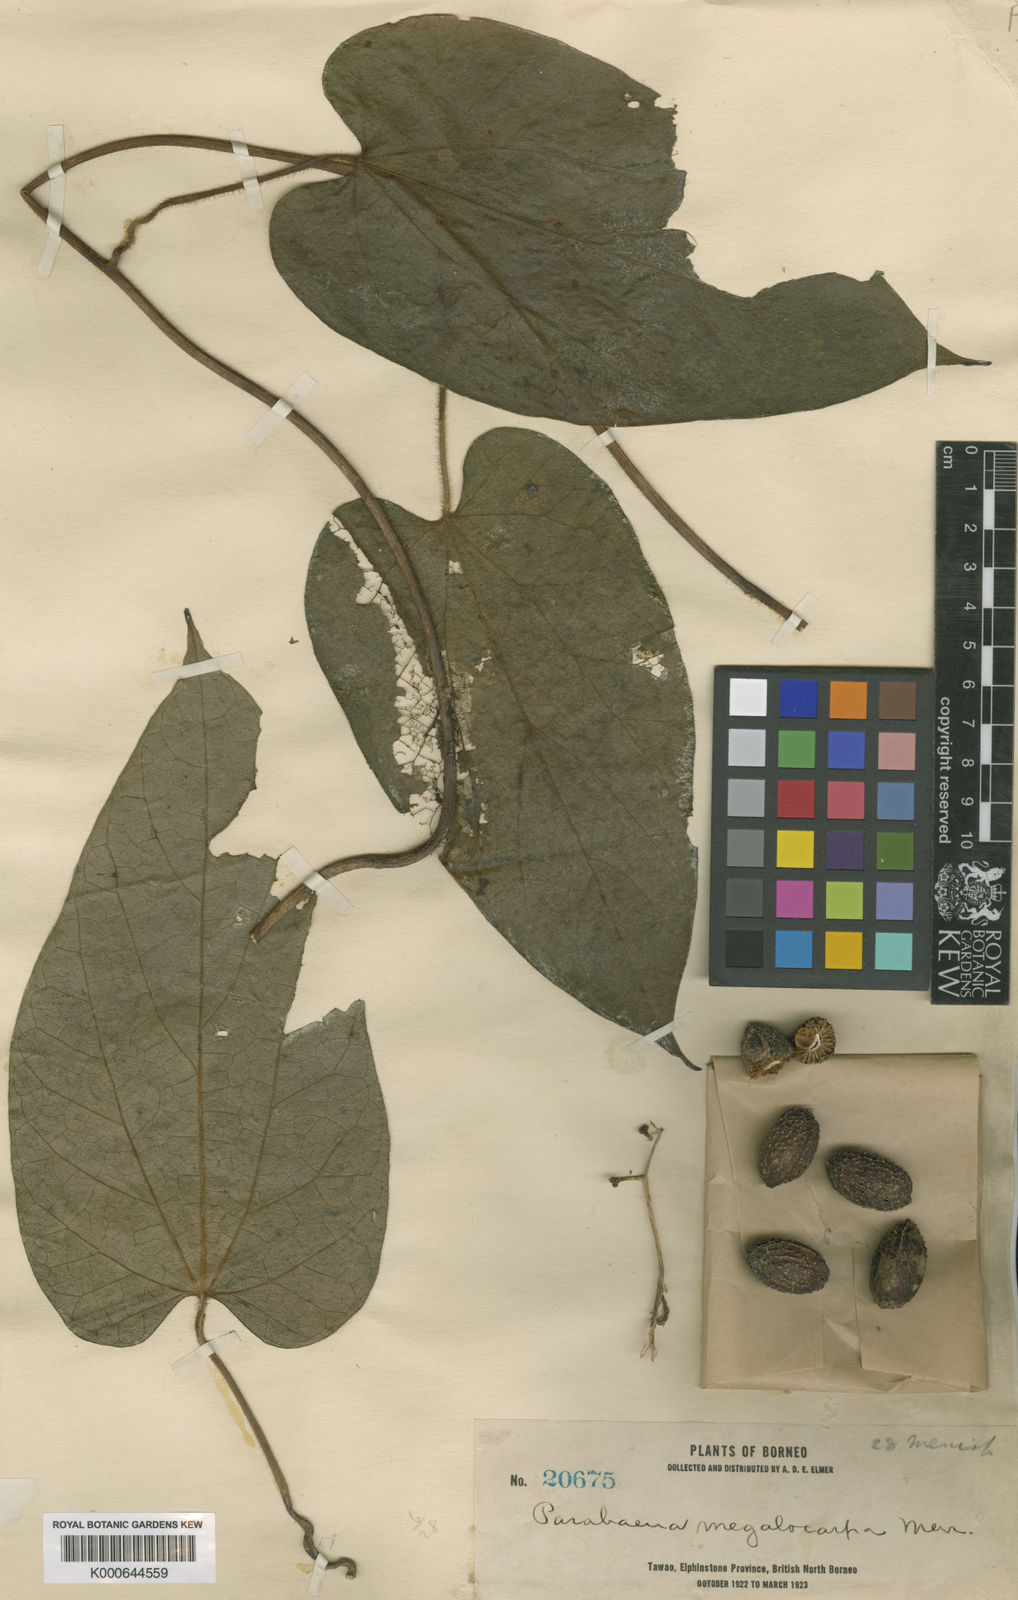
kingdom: Plantae
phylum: Tracheophyta
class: Magnoliopsida
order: Ranunculales
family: Menispermaceae
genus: Parabaena
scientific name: Parabaena megalocarpa
